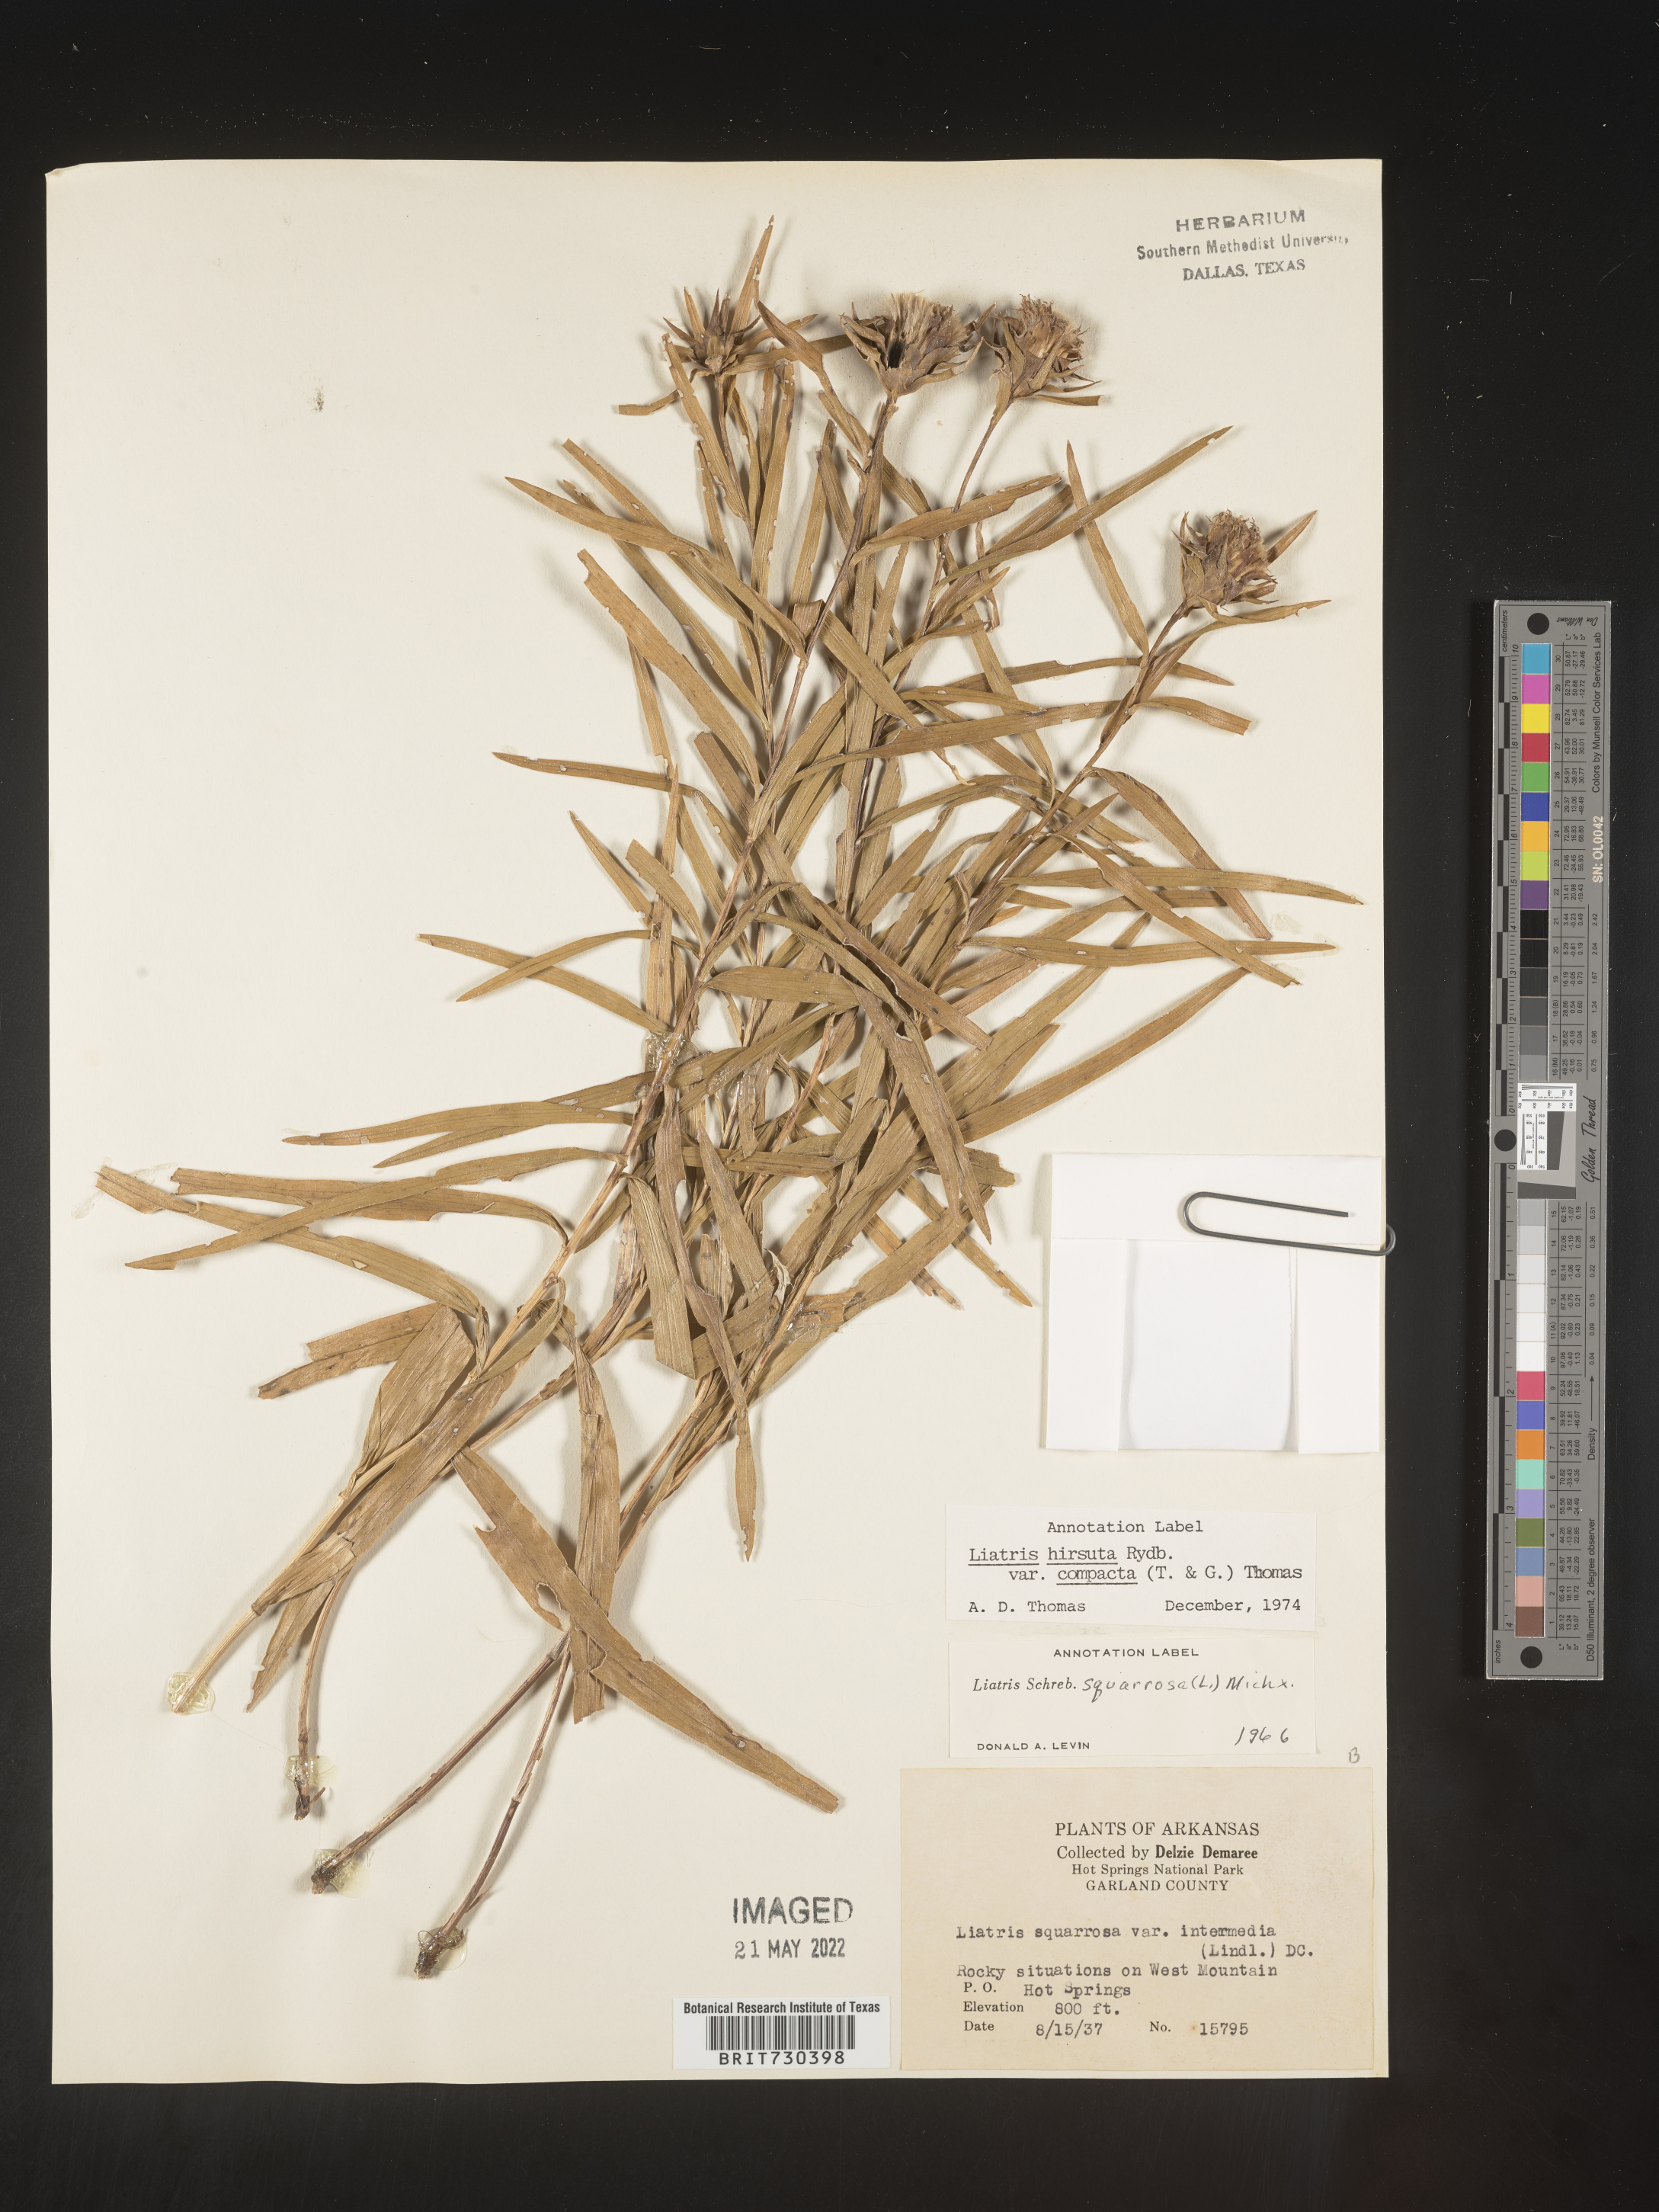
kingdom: Plantae
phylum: Tracheophyta
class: Magnoliopsida
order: Asterales
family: Asteraceae
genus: Liatris
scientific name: Liatris compacta
